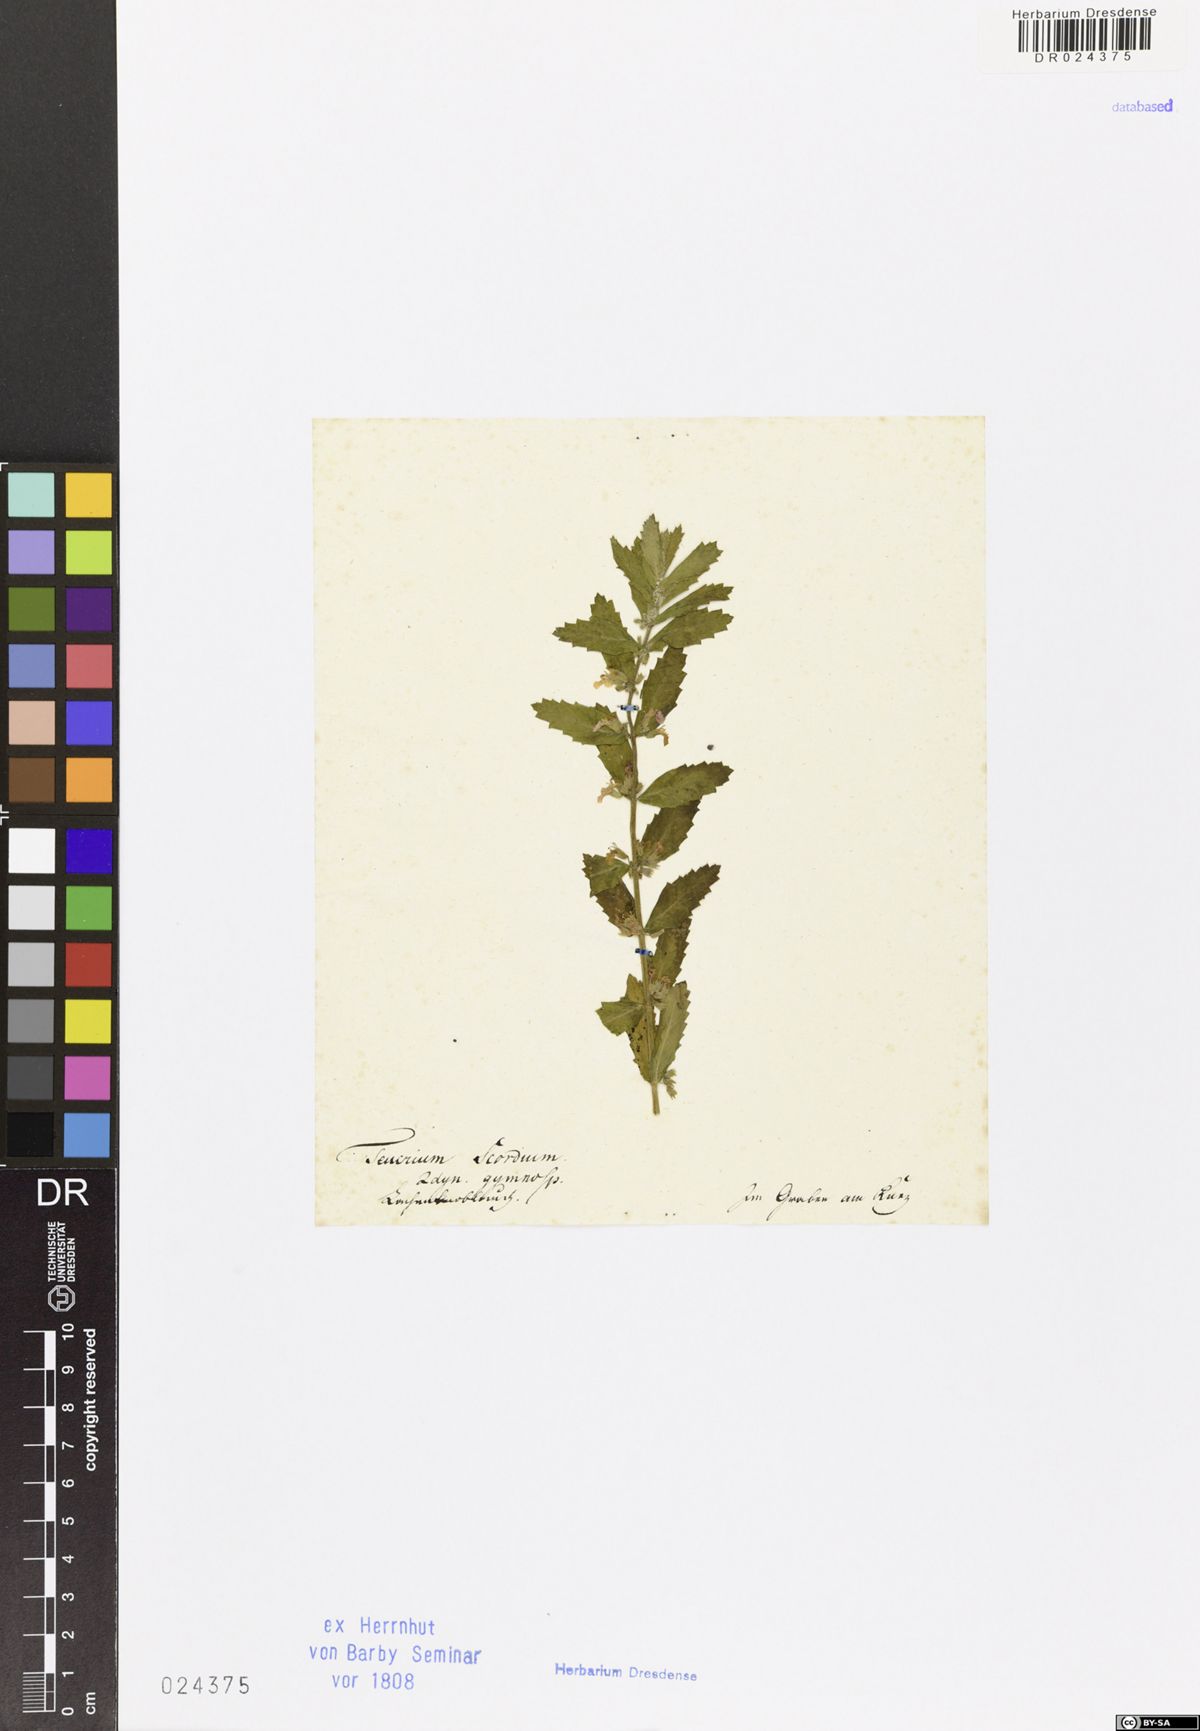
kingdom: Plantae
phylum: Tracheophyta
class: Magnoliopsida
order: Lamiales
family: Lamiaceae
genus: Teucrium
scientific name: Teucrium scordium
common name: Water germander
